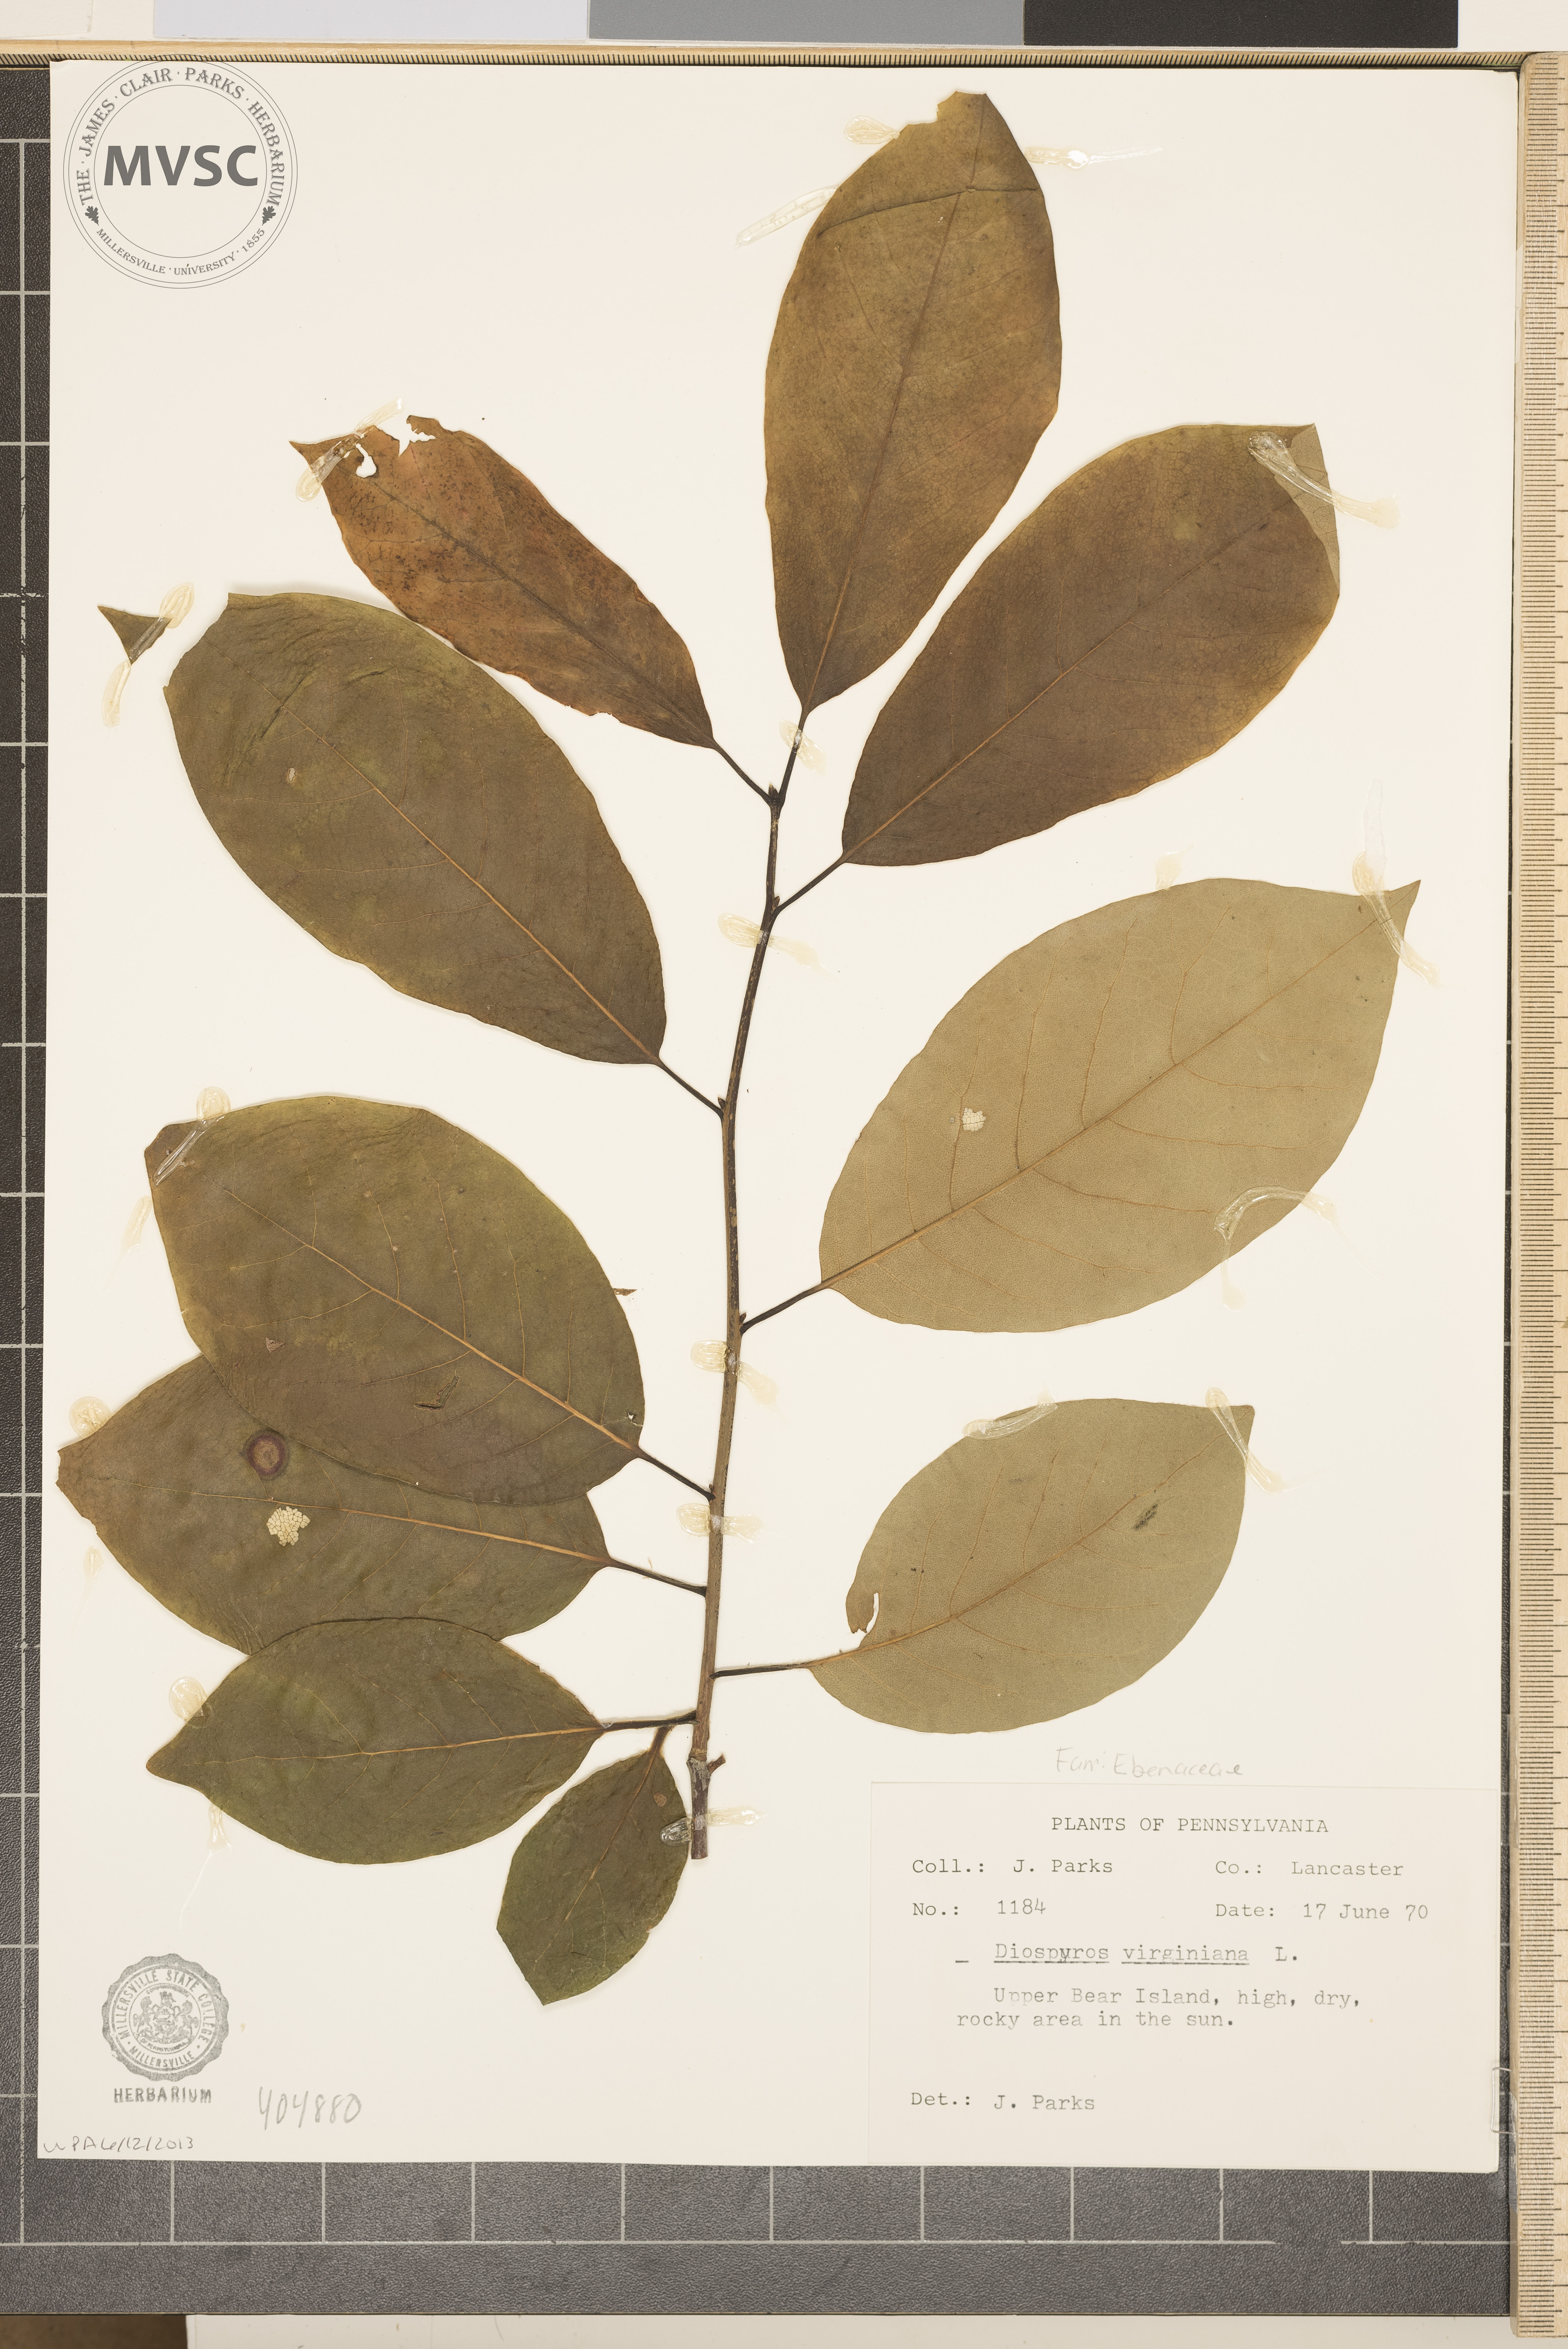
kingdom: Plantae
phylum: Tracheophyta
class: Magnoliopsida
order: Ericales
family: Ebenaceae
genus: Diospyros
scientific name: Diospyros virginiana
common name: Persimmon
